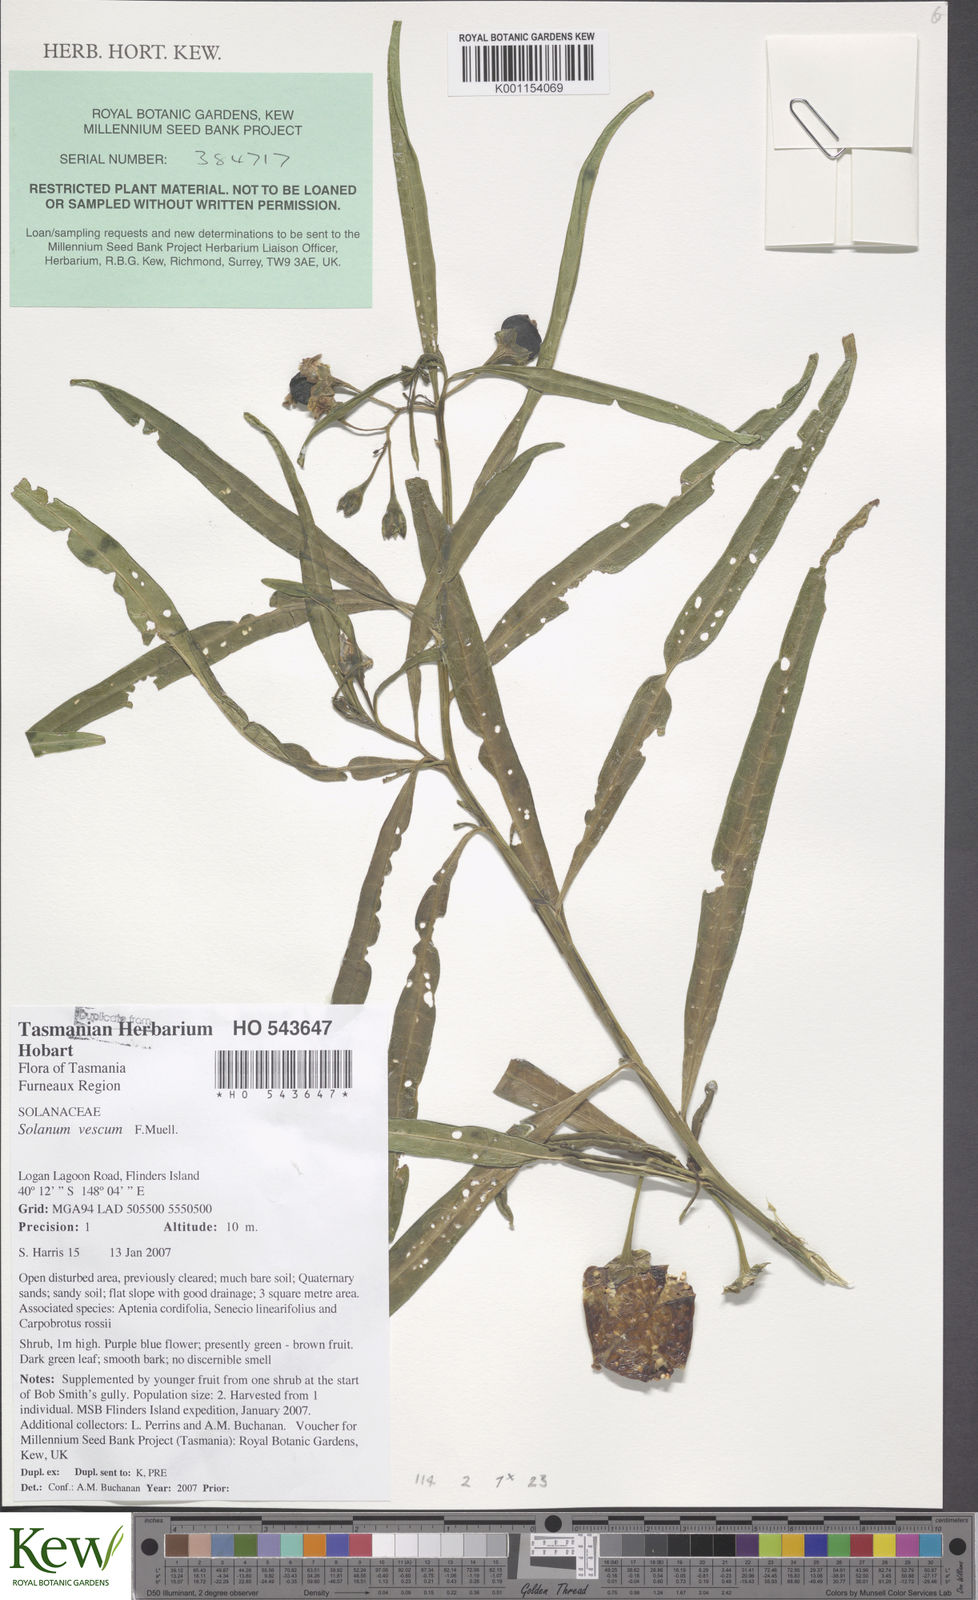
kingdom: Plantae
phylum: Tracheophyta
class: Magnoliopsida
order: Solanales
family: Solanaceae
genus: Solanum
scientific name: Solanum vescum
